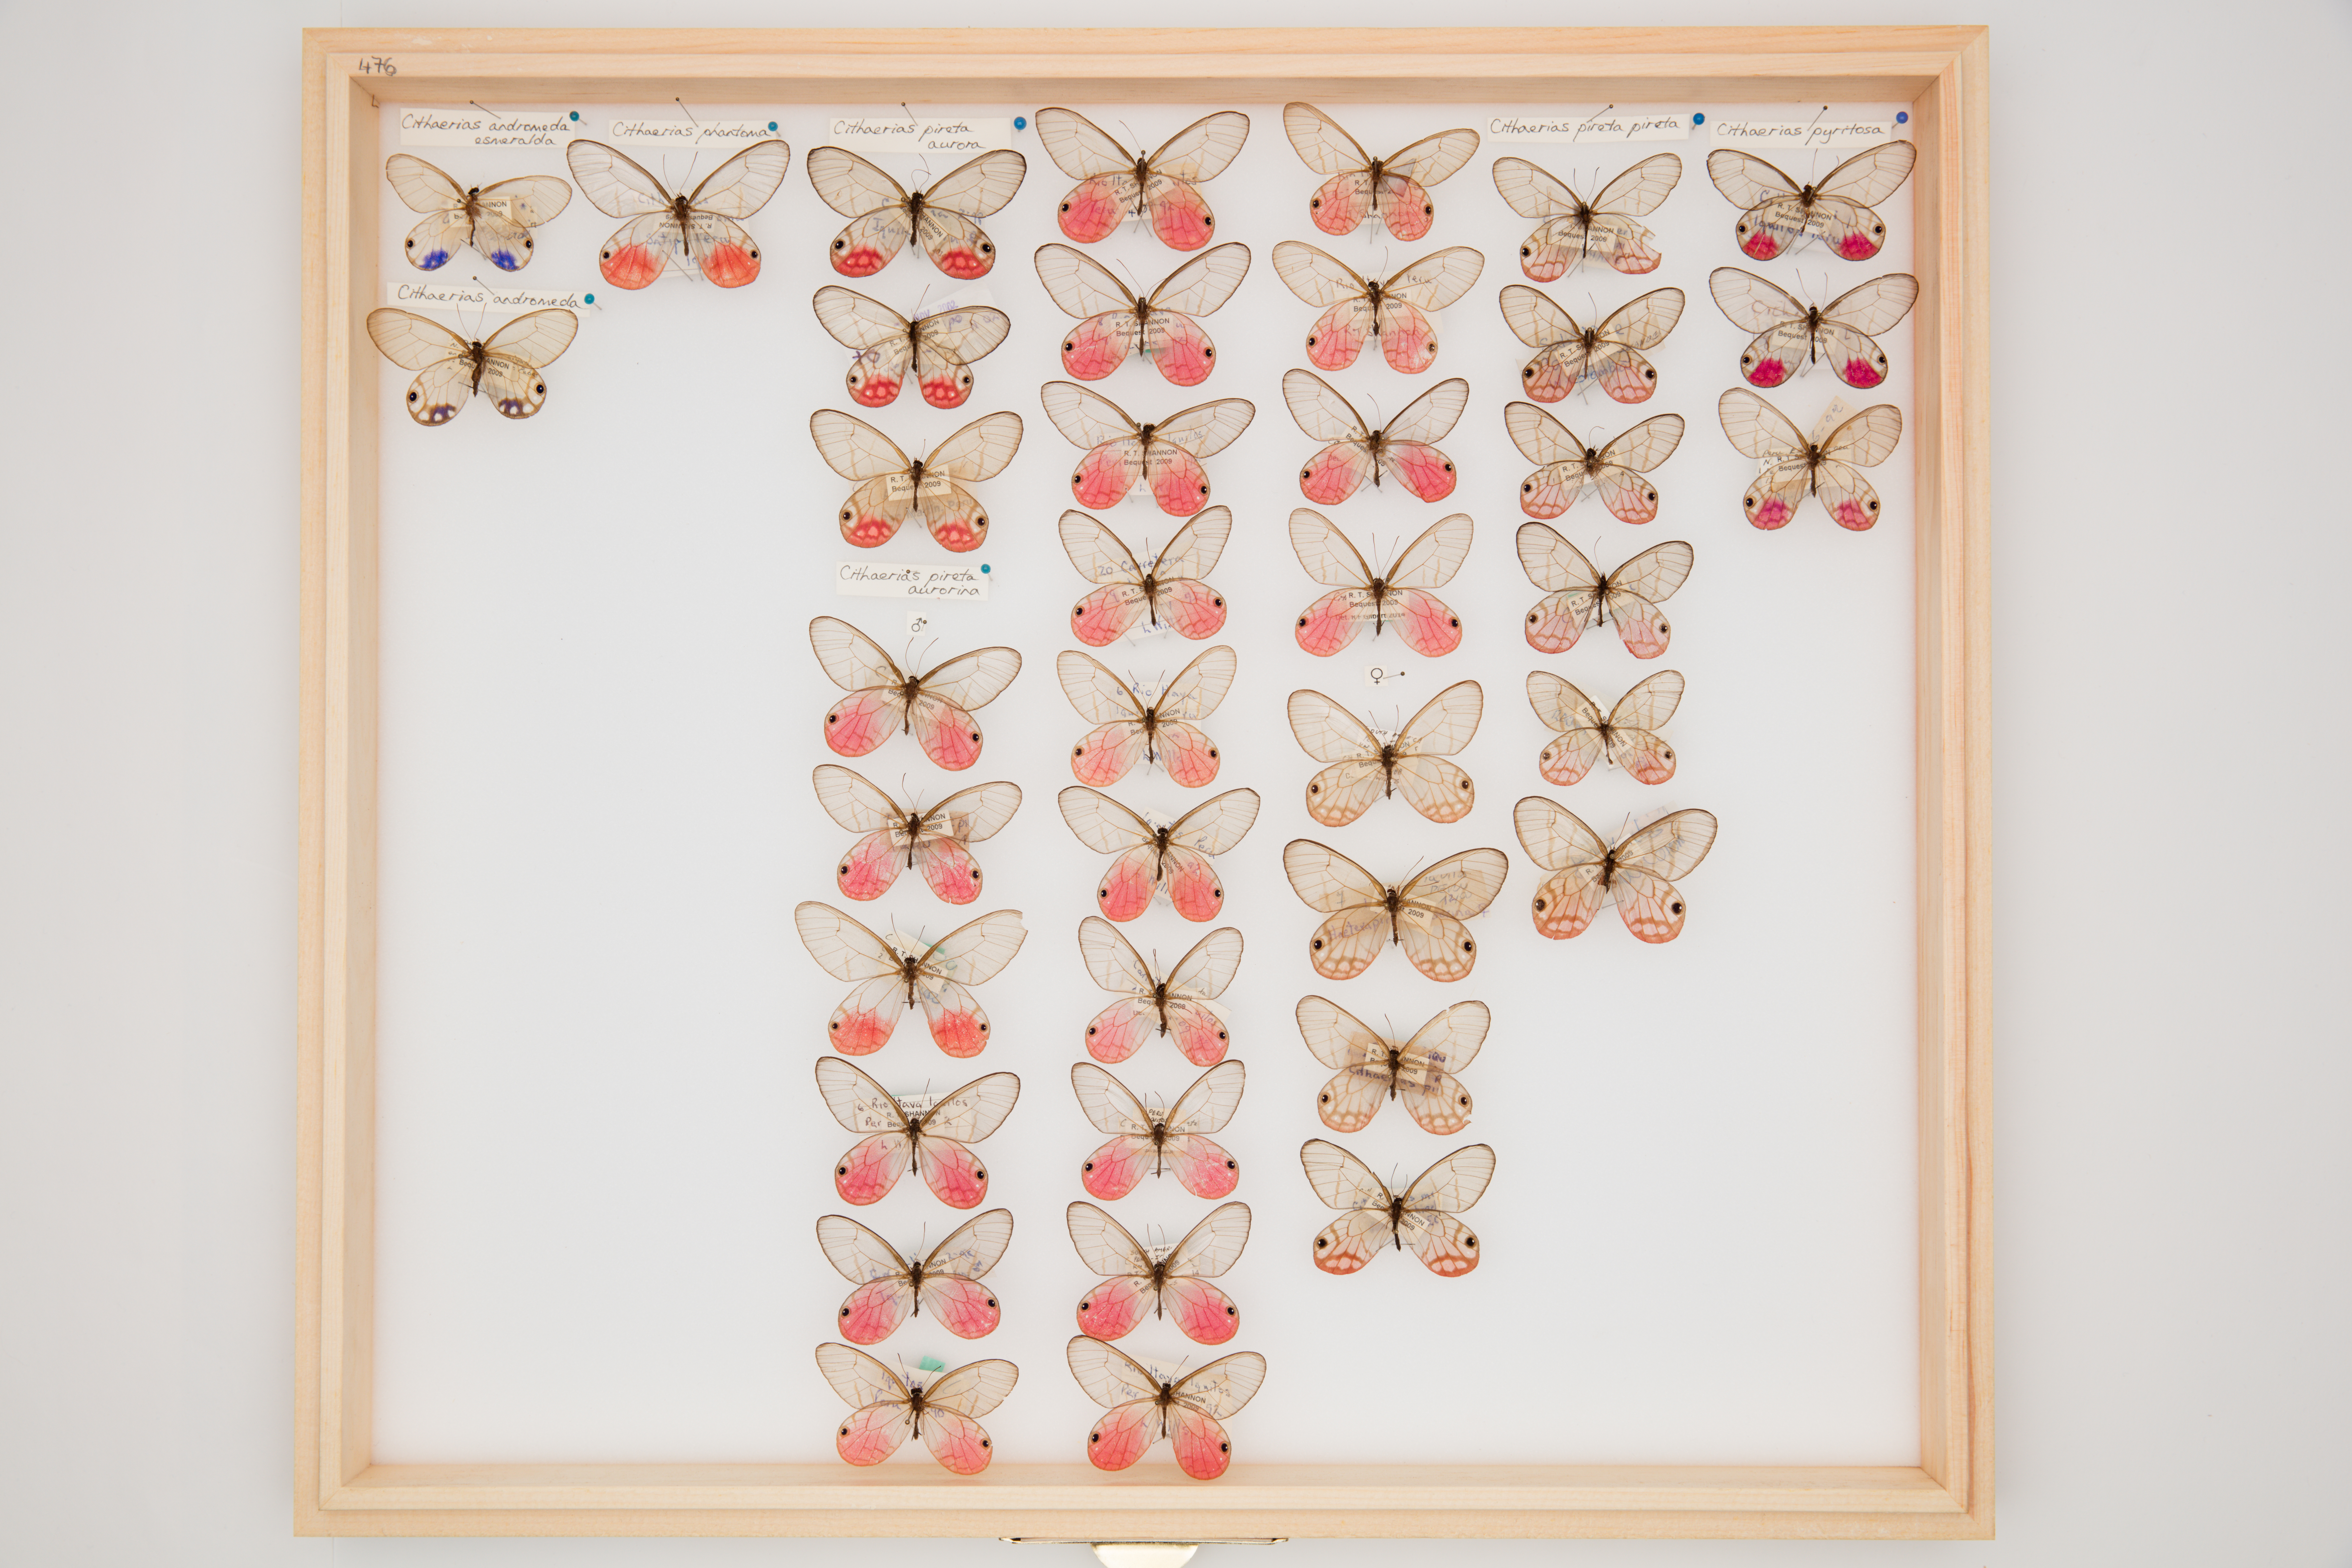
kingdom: Animalia
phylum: Arthropoda
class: Insecta
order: Lepidoptera
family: Nymphalidae
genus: Cithaerias
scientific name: Cithaerias pireta
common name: Rusted clearwing-satyr
